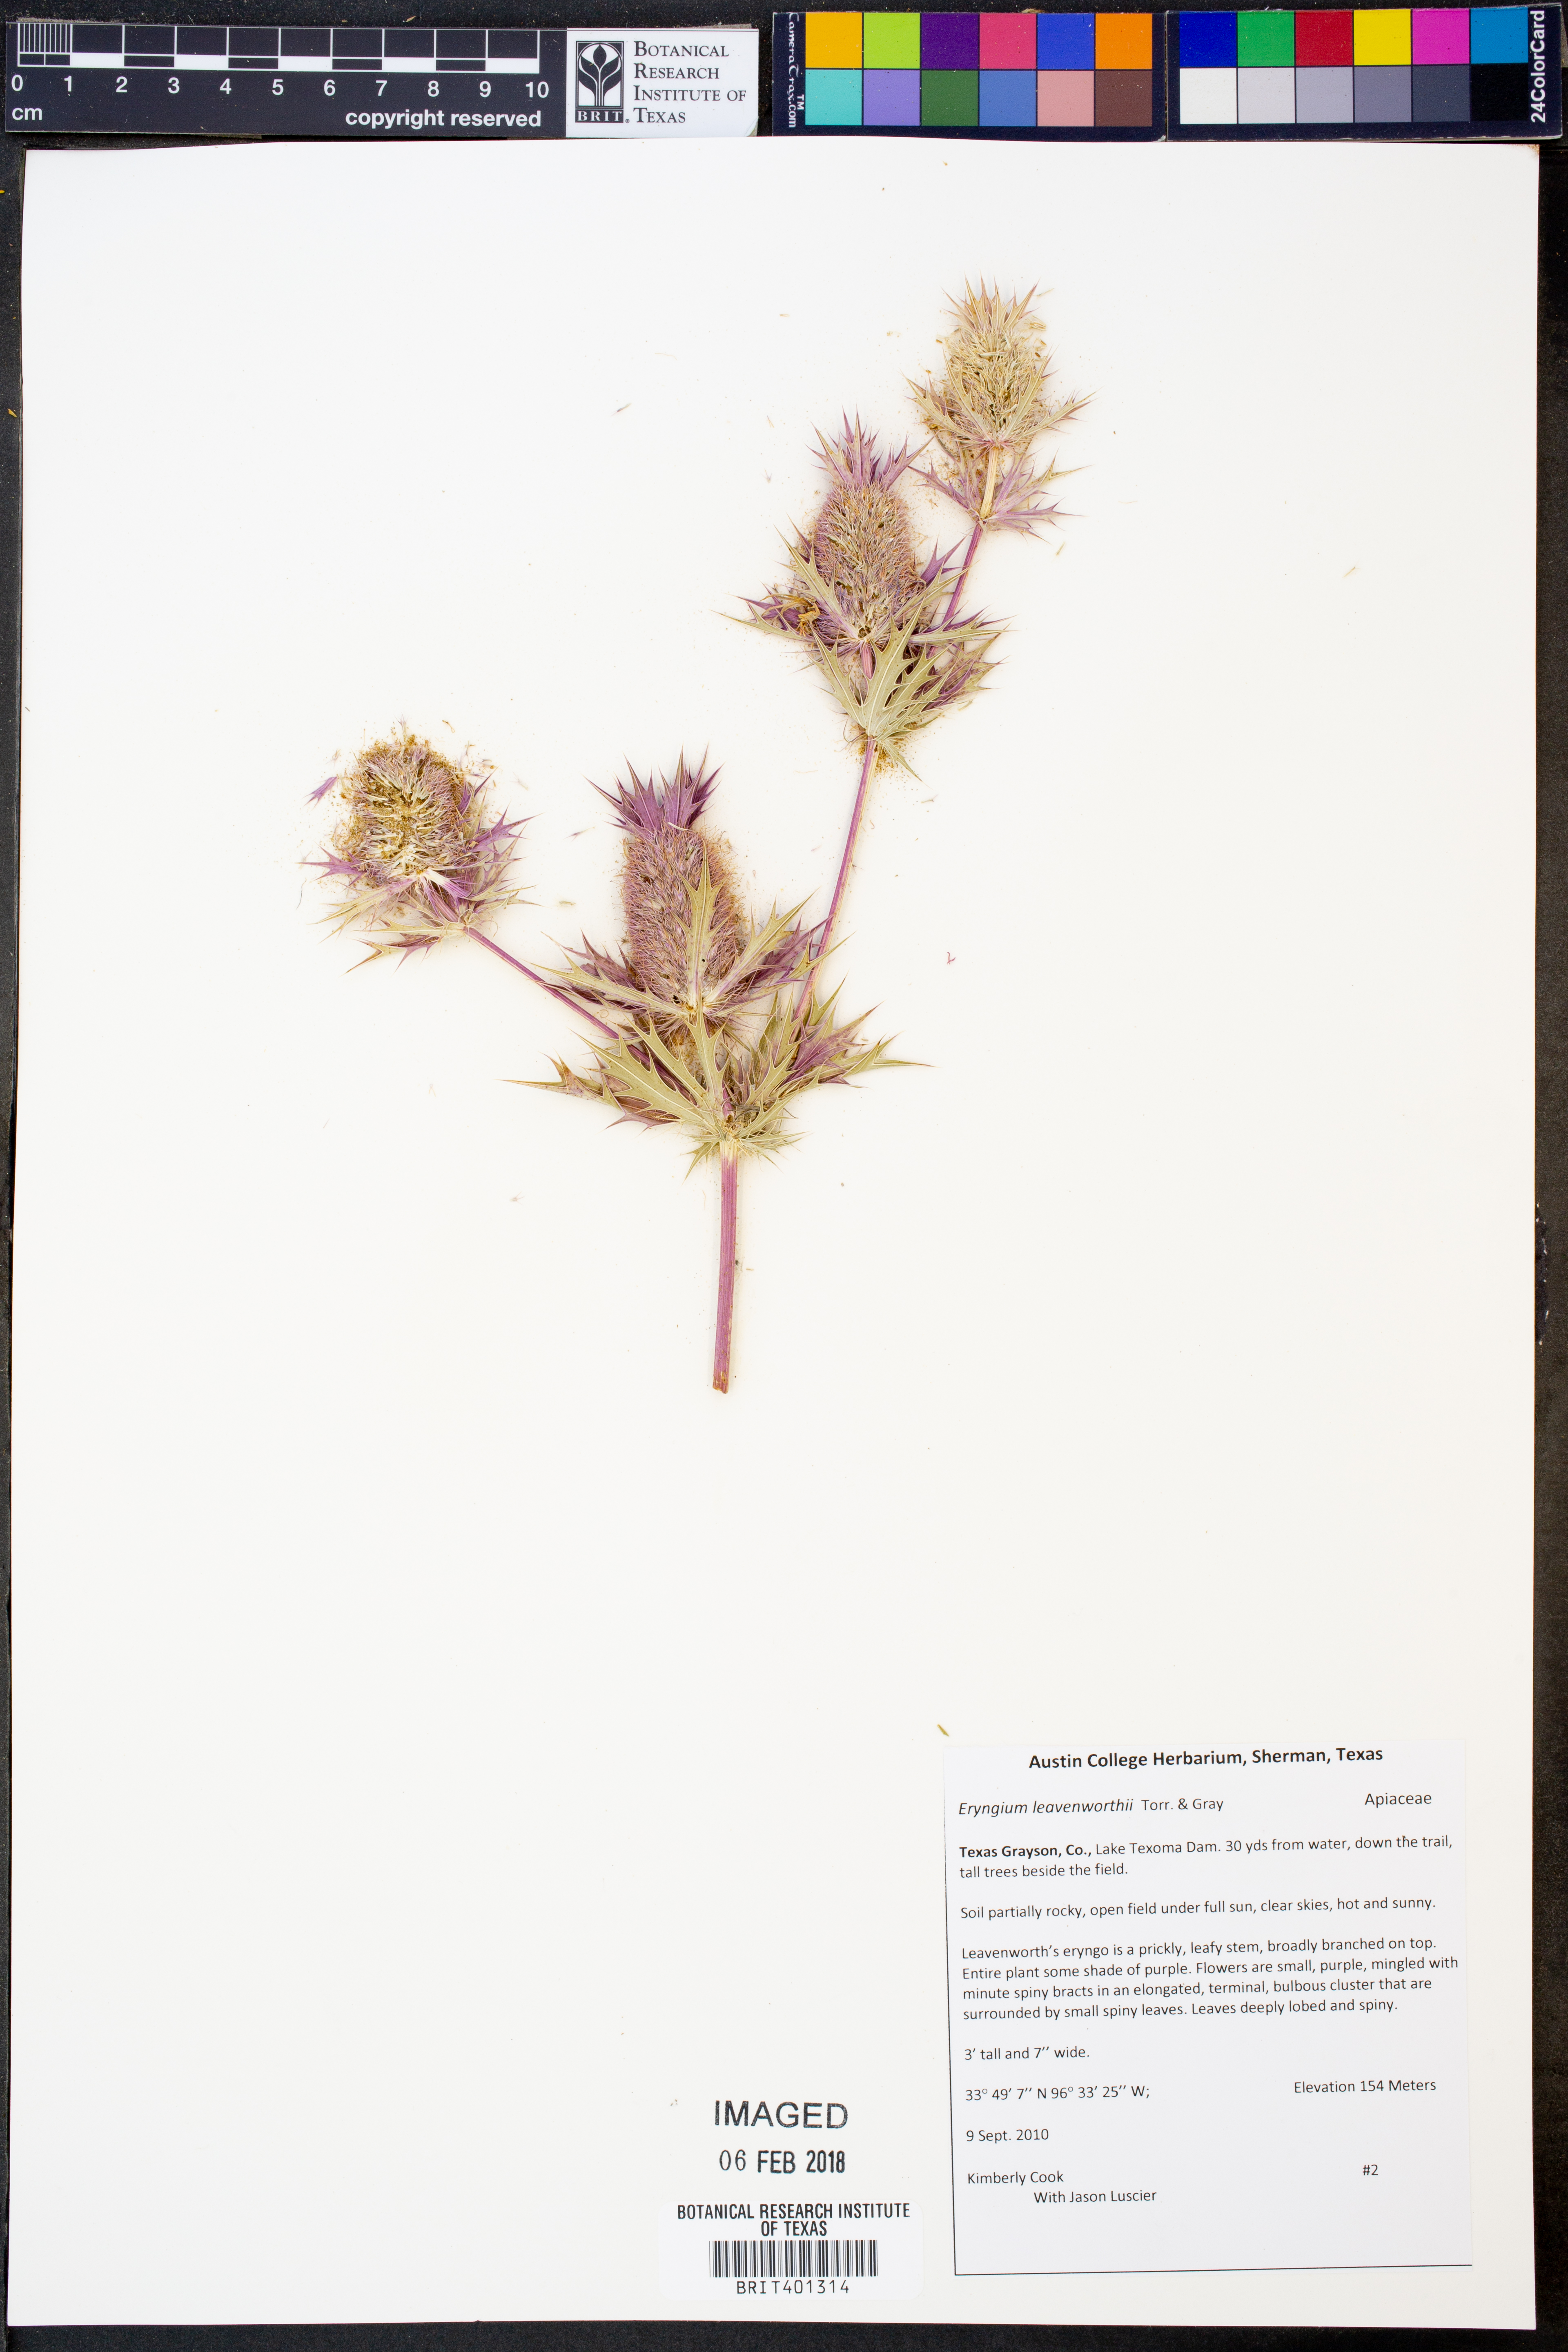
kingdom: Plantae
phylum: Tracheophyta
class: Magnoliopsida
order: Apiales
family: Apiaceae
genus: Eryngium
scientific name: Eryngium leavenworthii
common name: Leavenworth's eryngo
